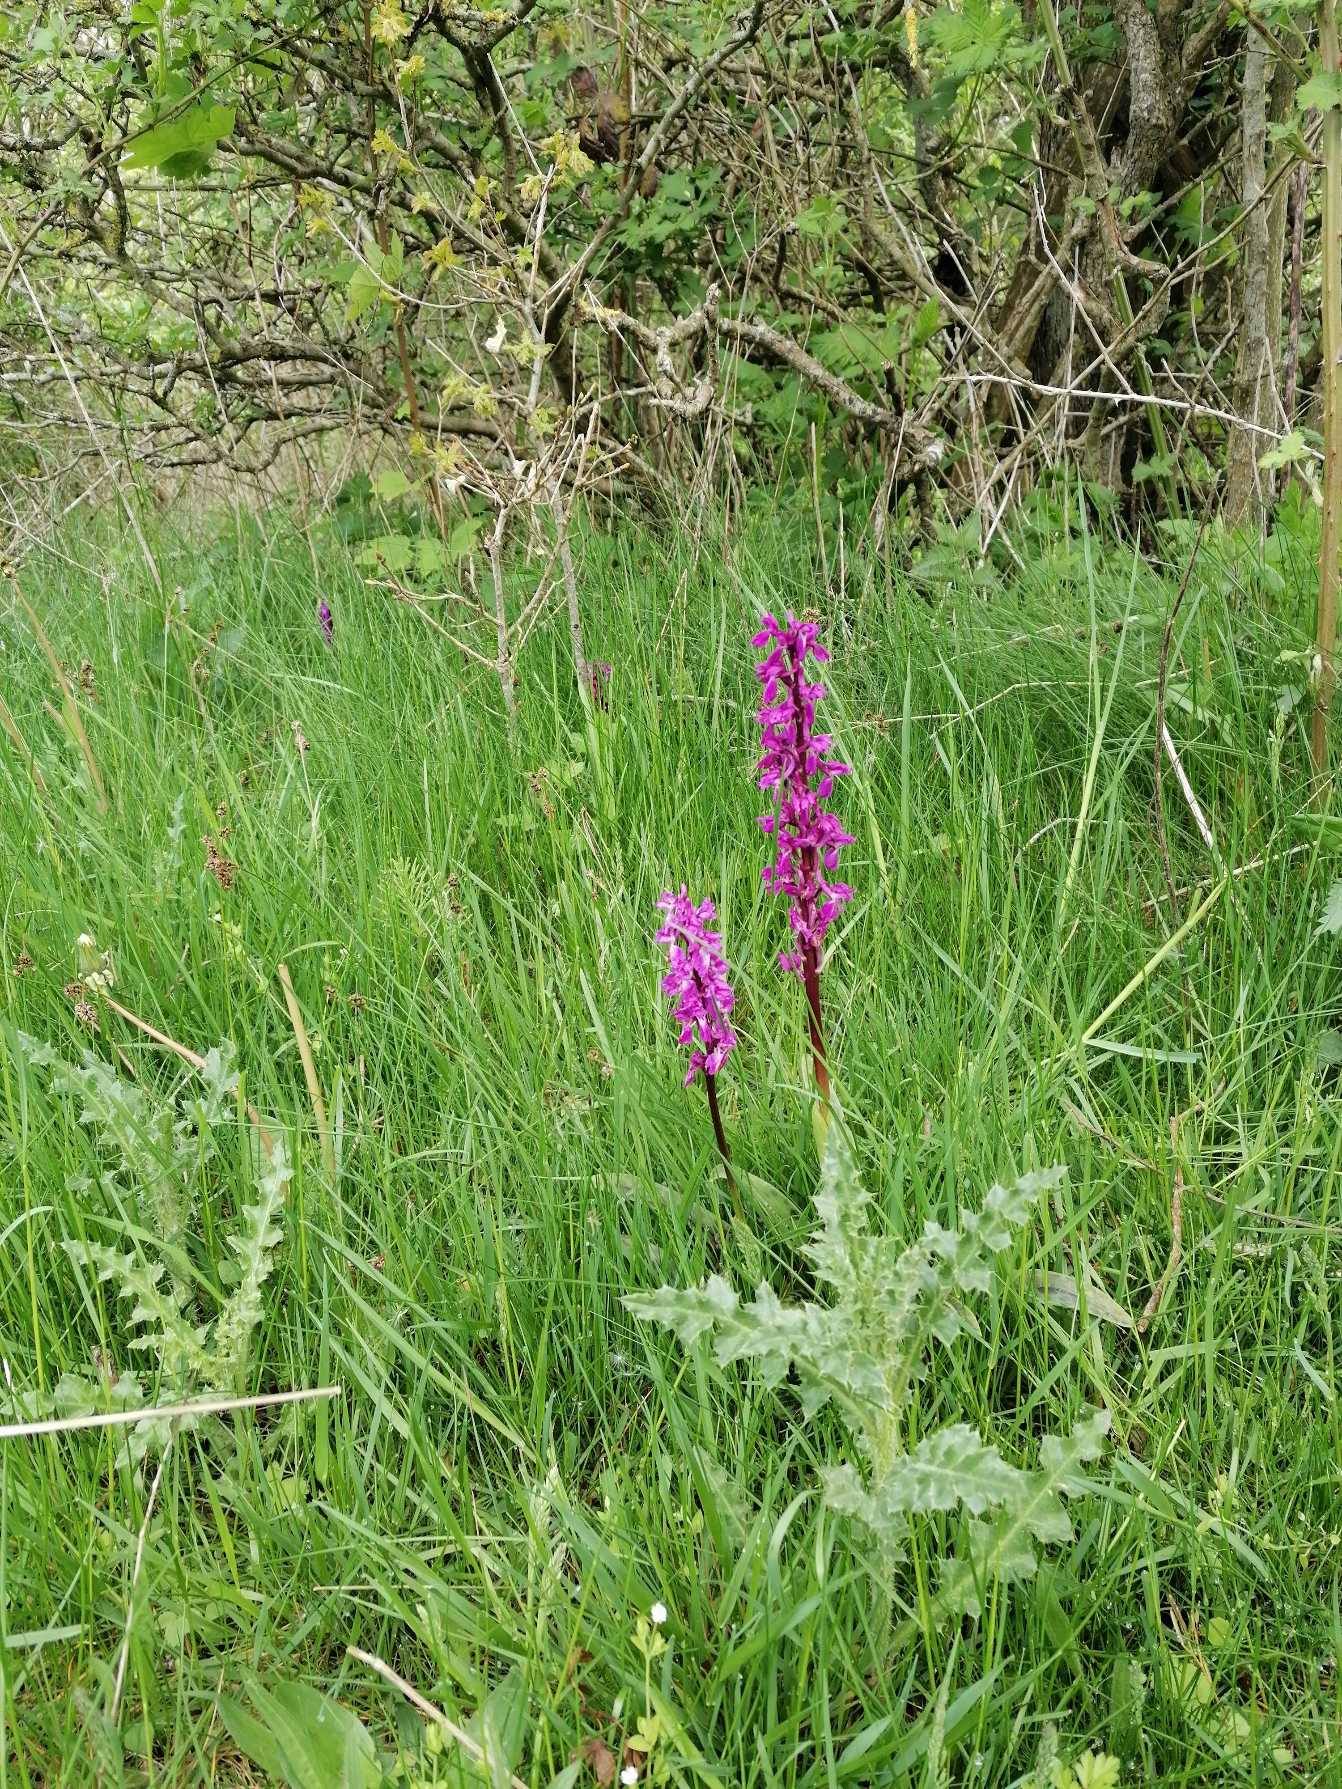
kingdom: Plantae
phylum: Tracheophyta
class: Liliopsida
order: Asparagales
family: Orchidaceae
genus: Orchis
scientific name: Orchis mascula
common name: Tyndakset gøgeurt
